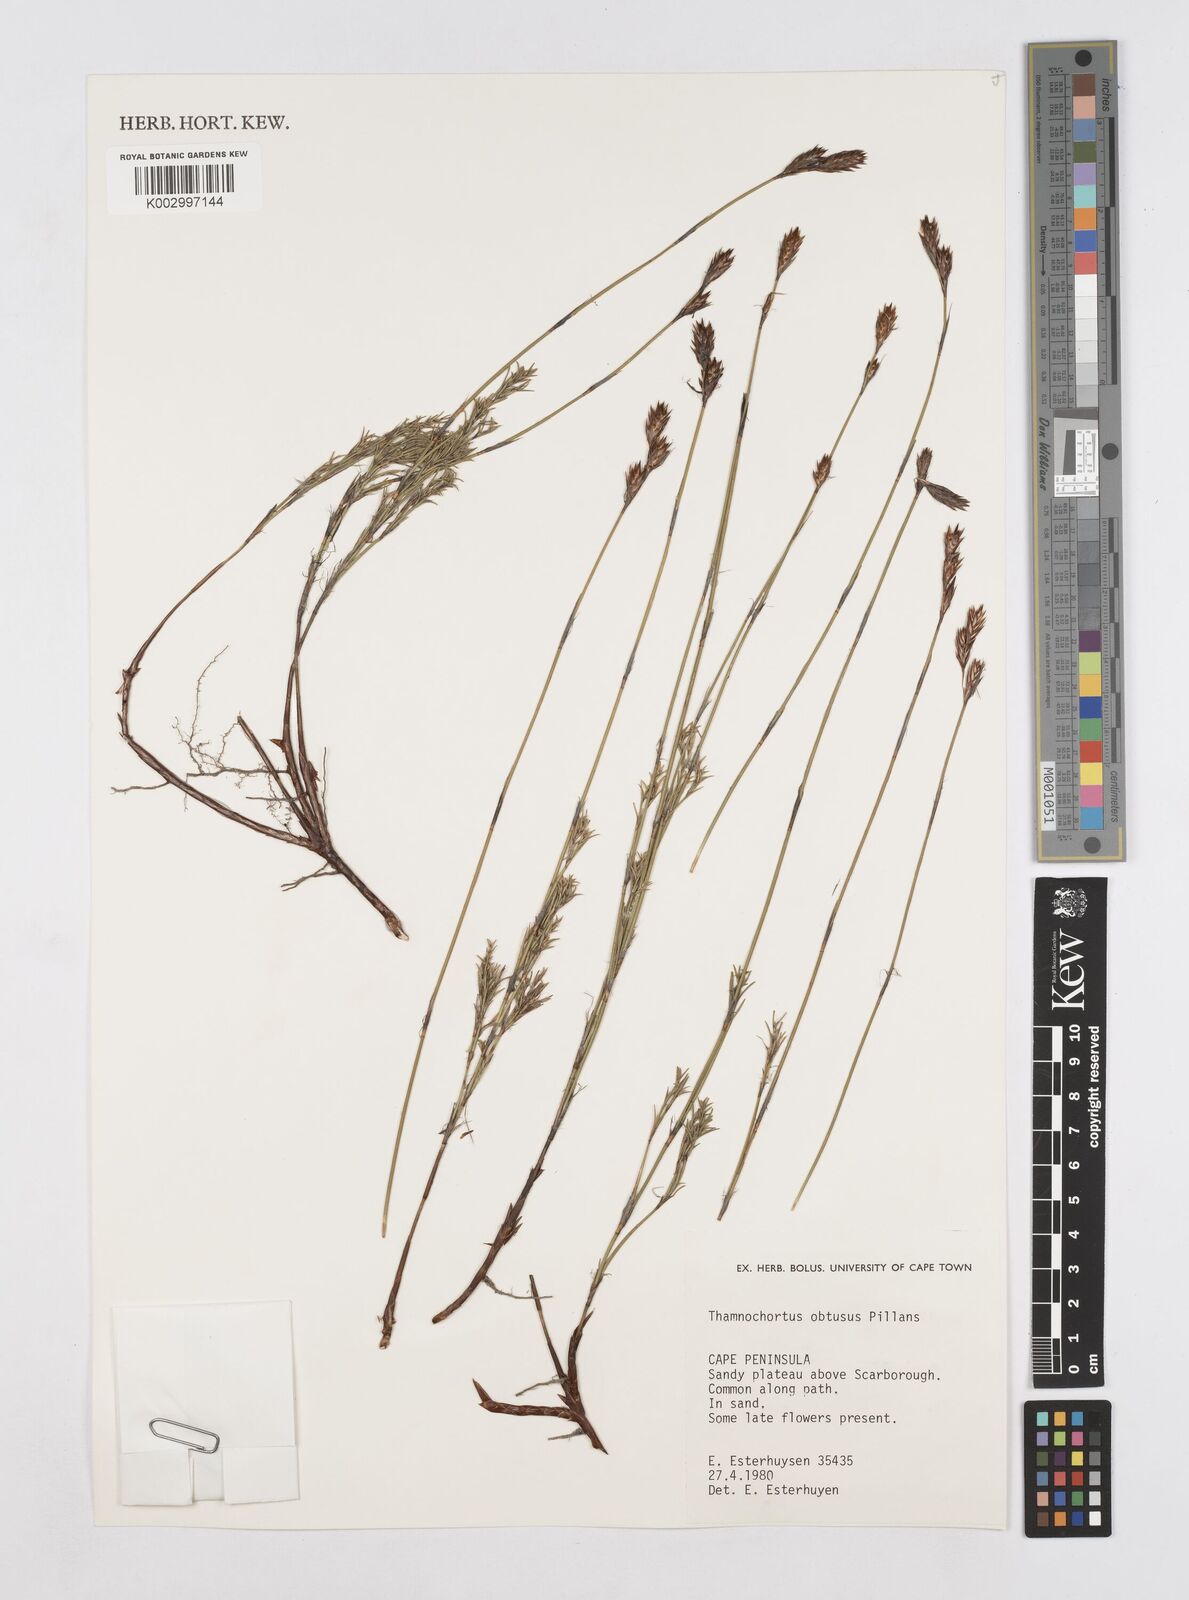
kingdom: Plantae
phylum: Tracheophyta
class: Liliopsida
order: Poales
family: Restionaceae
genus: Thamnochortus
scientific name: Thamnochortus obtusus
